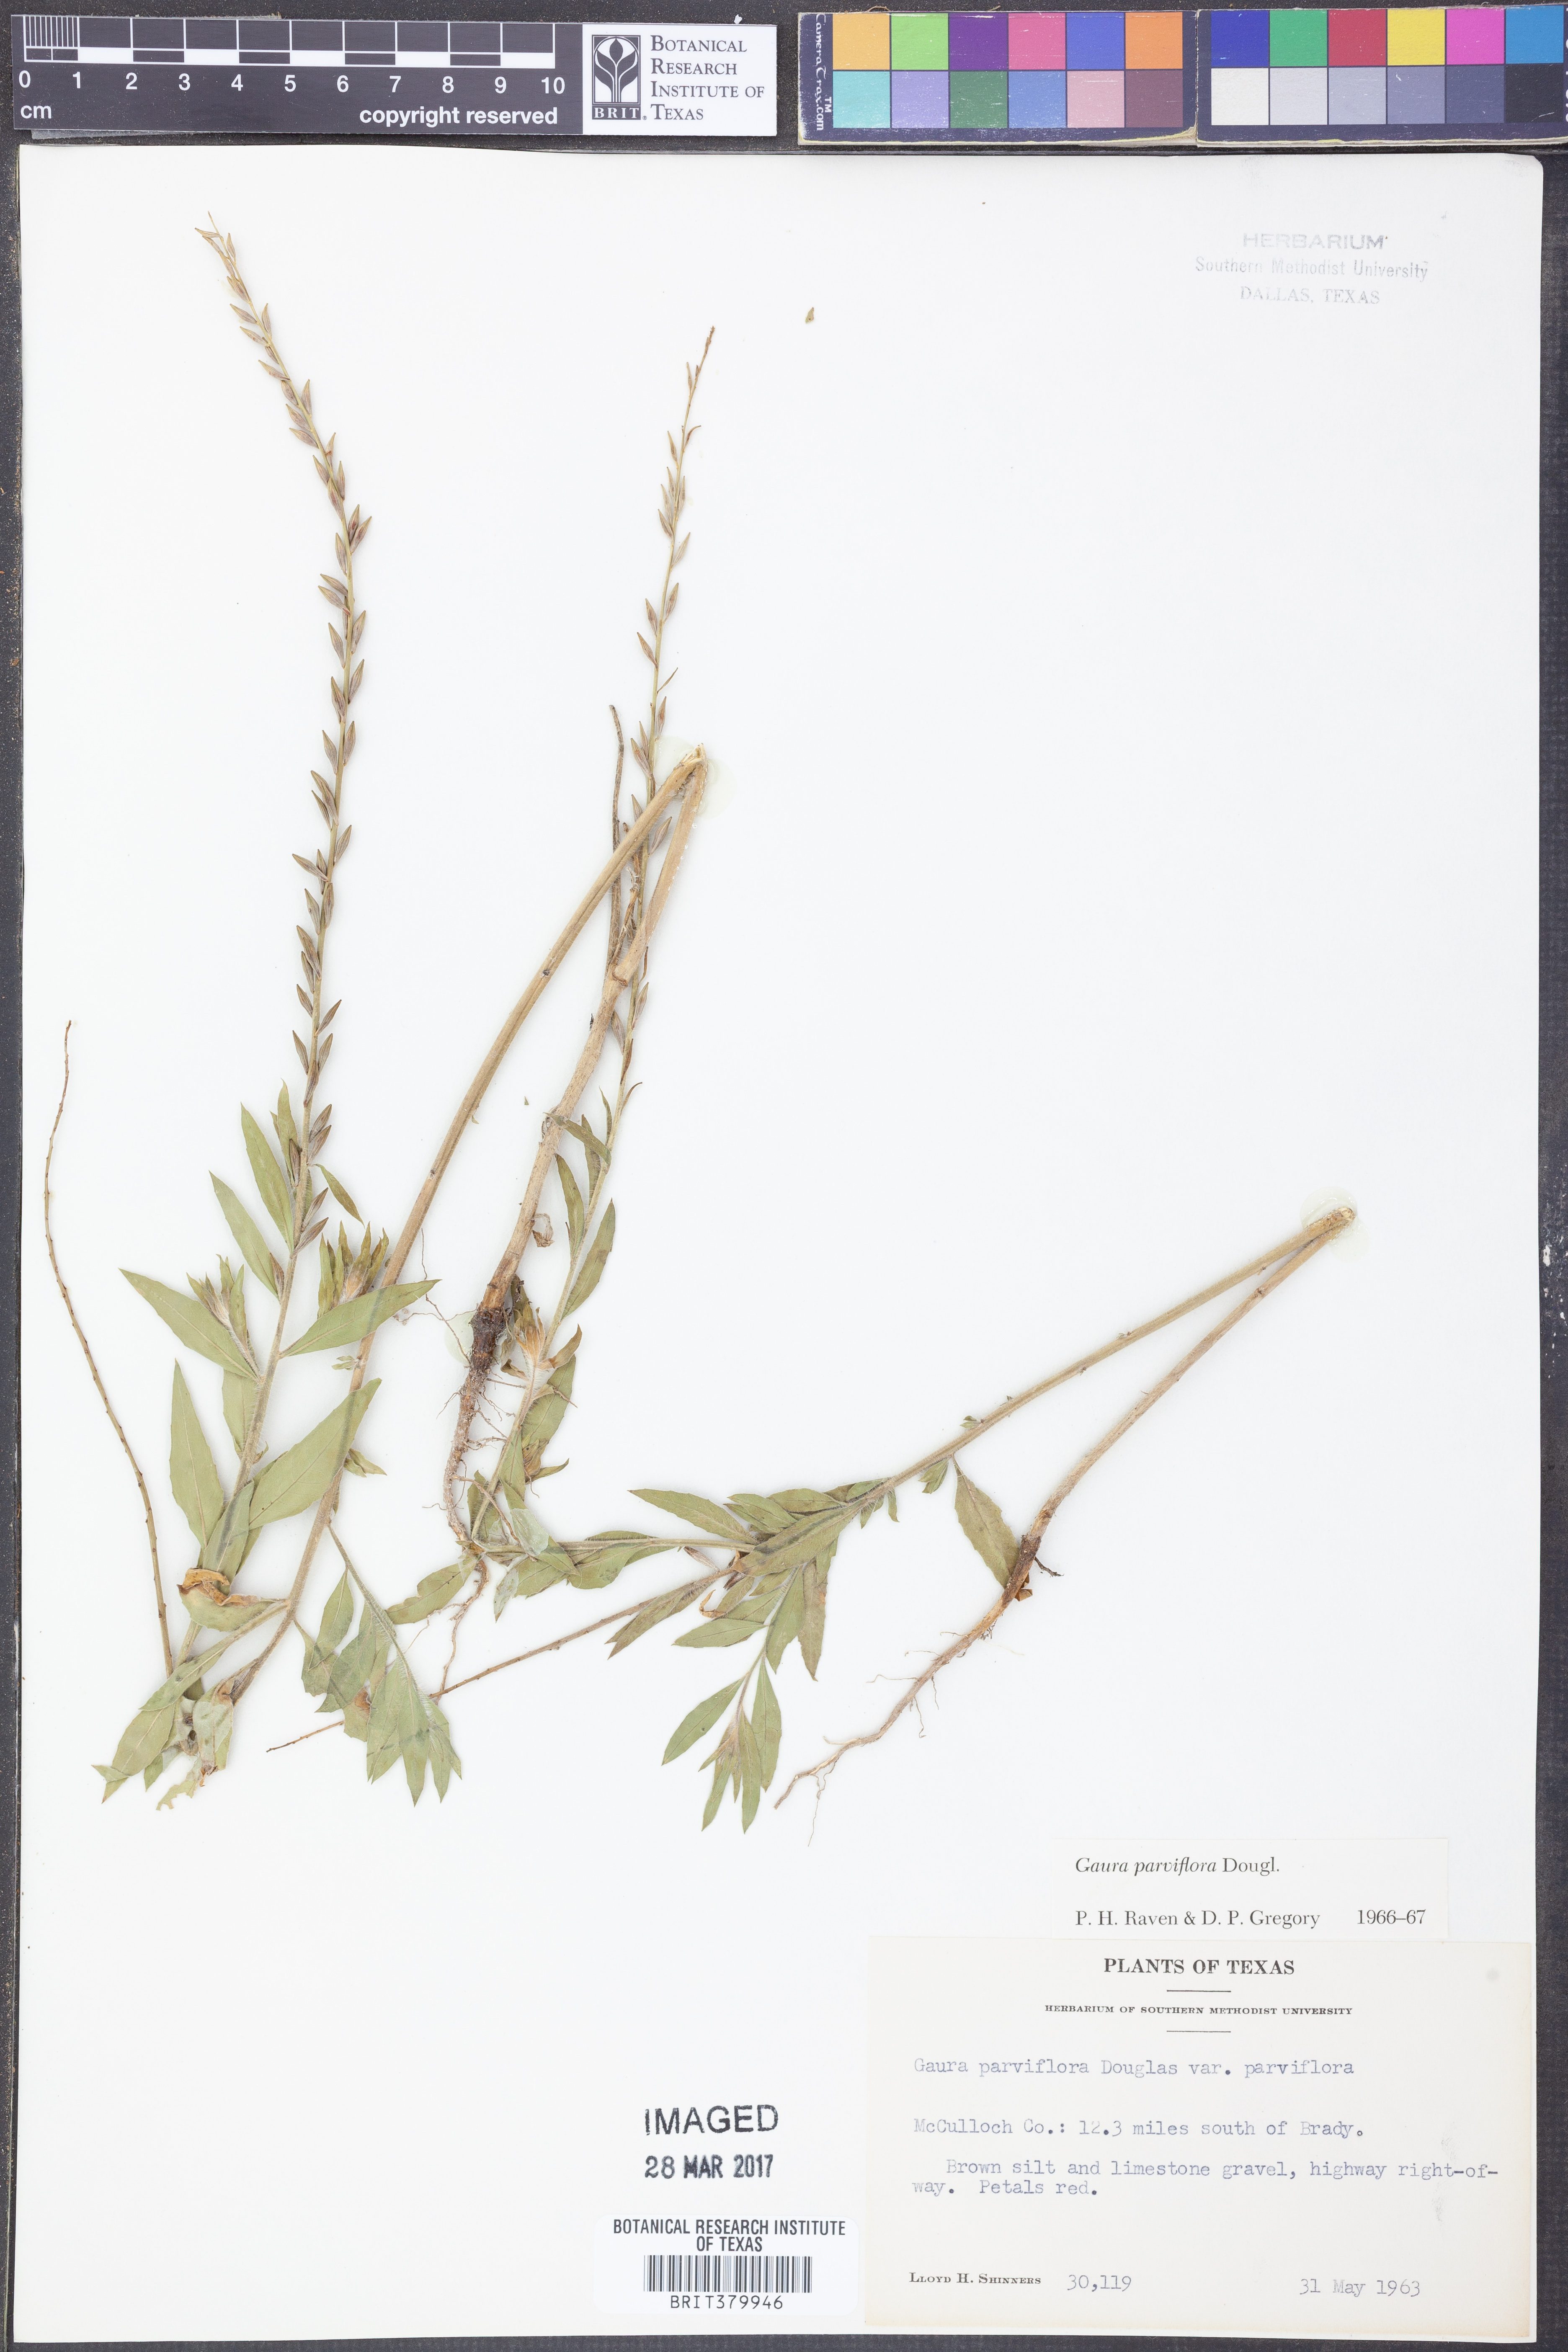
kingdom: Plantae
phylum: Tracheophyta
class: Magnoliopsida
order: Myrtales
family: Onagraceae
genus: Oenothera
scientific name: Oenothera curtiflora
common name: Velvetweed
